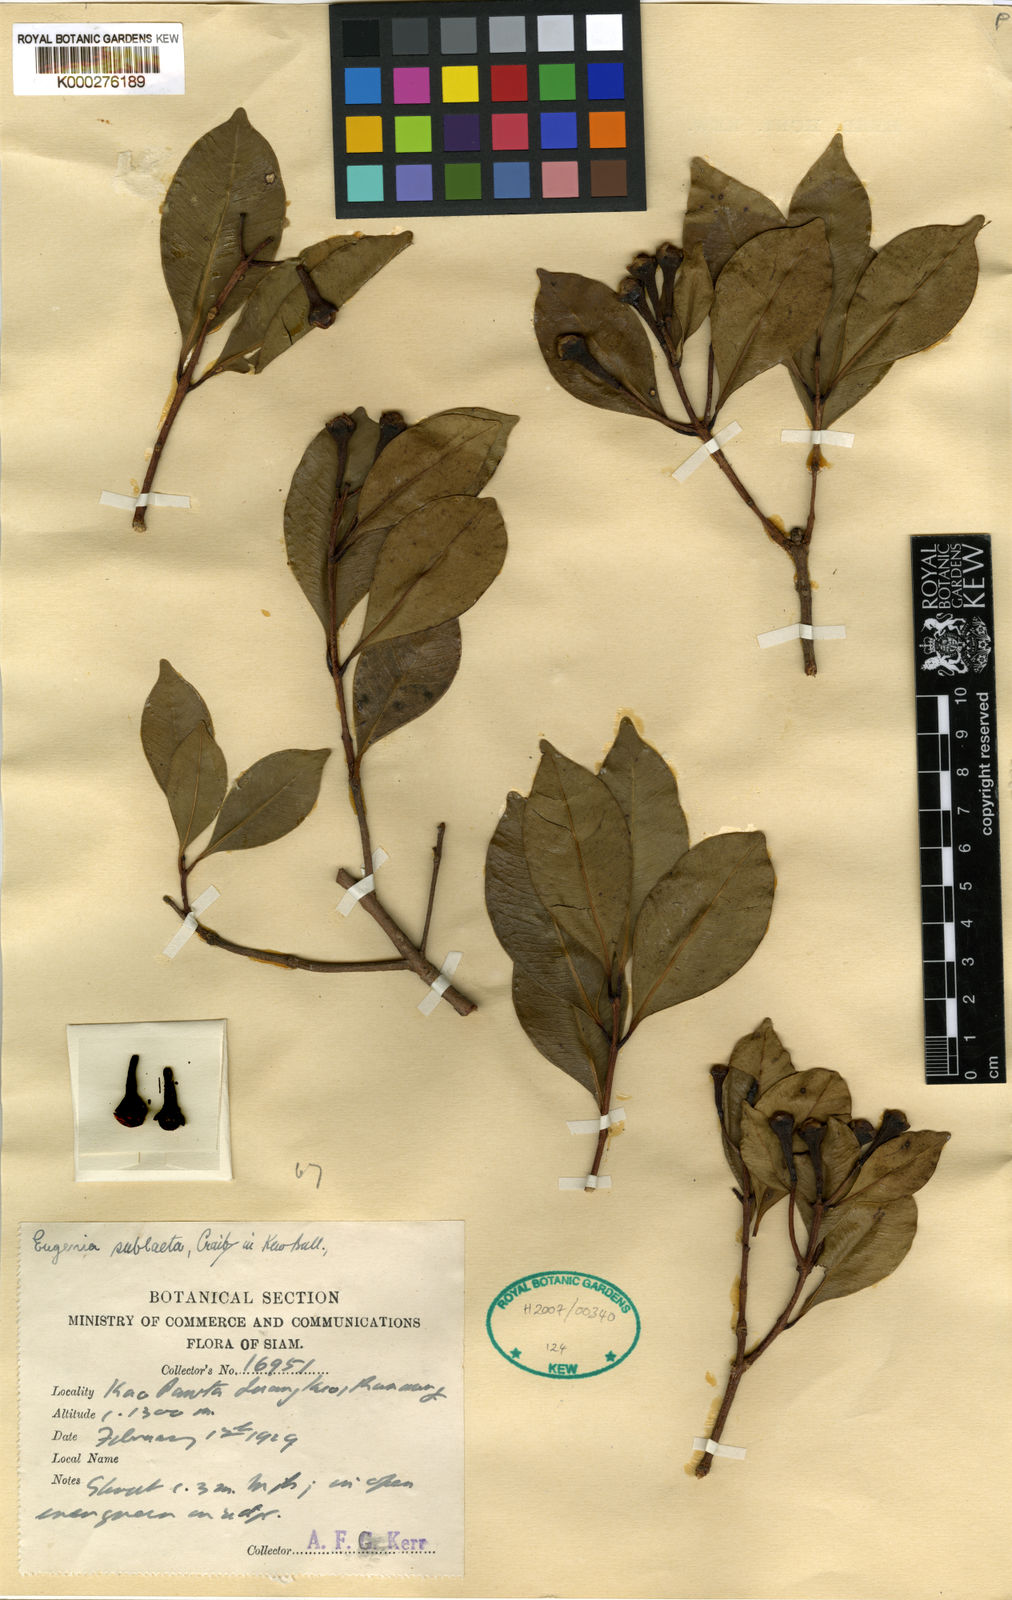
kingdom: Plantae
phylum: Tracheophyta
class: Magnoliopsida
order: Myrtales
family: Myrtaceae
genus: Syzygium
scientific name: Syzygium
